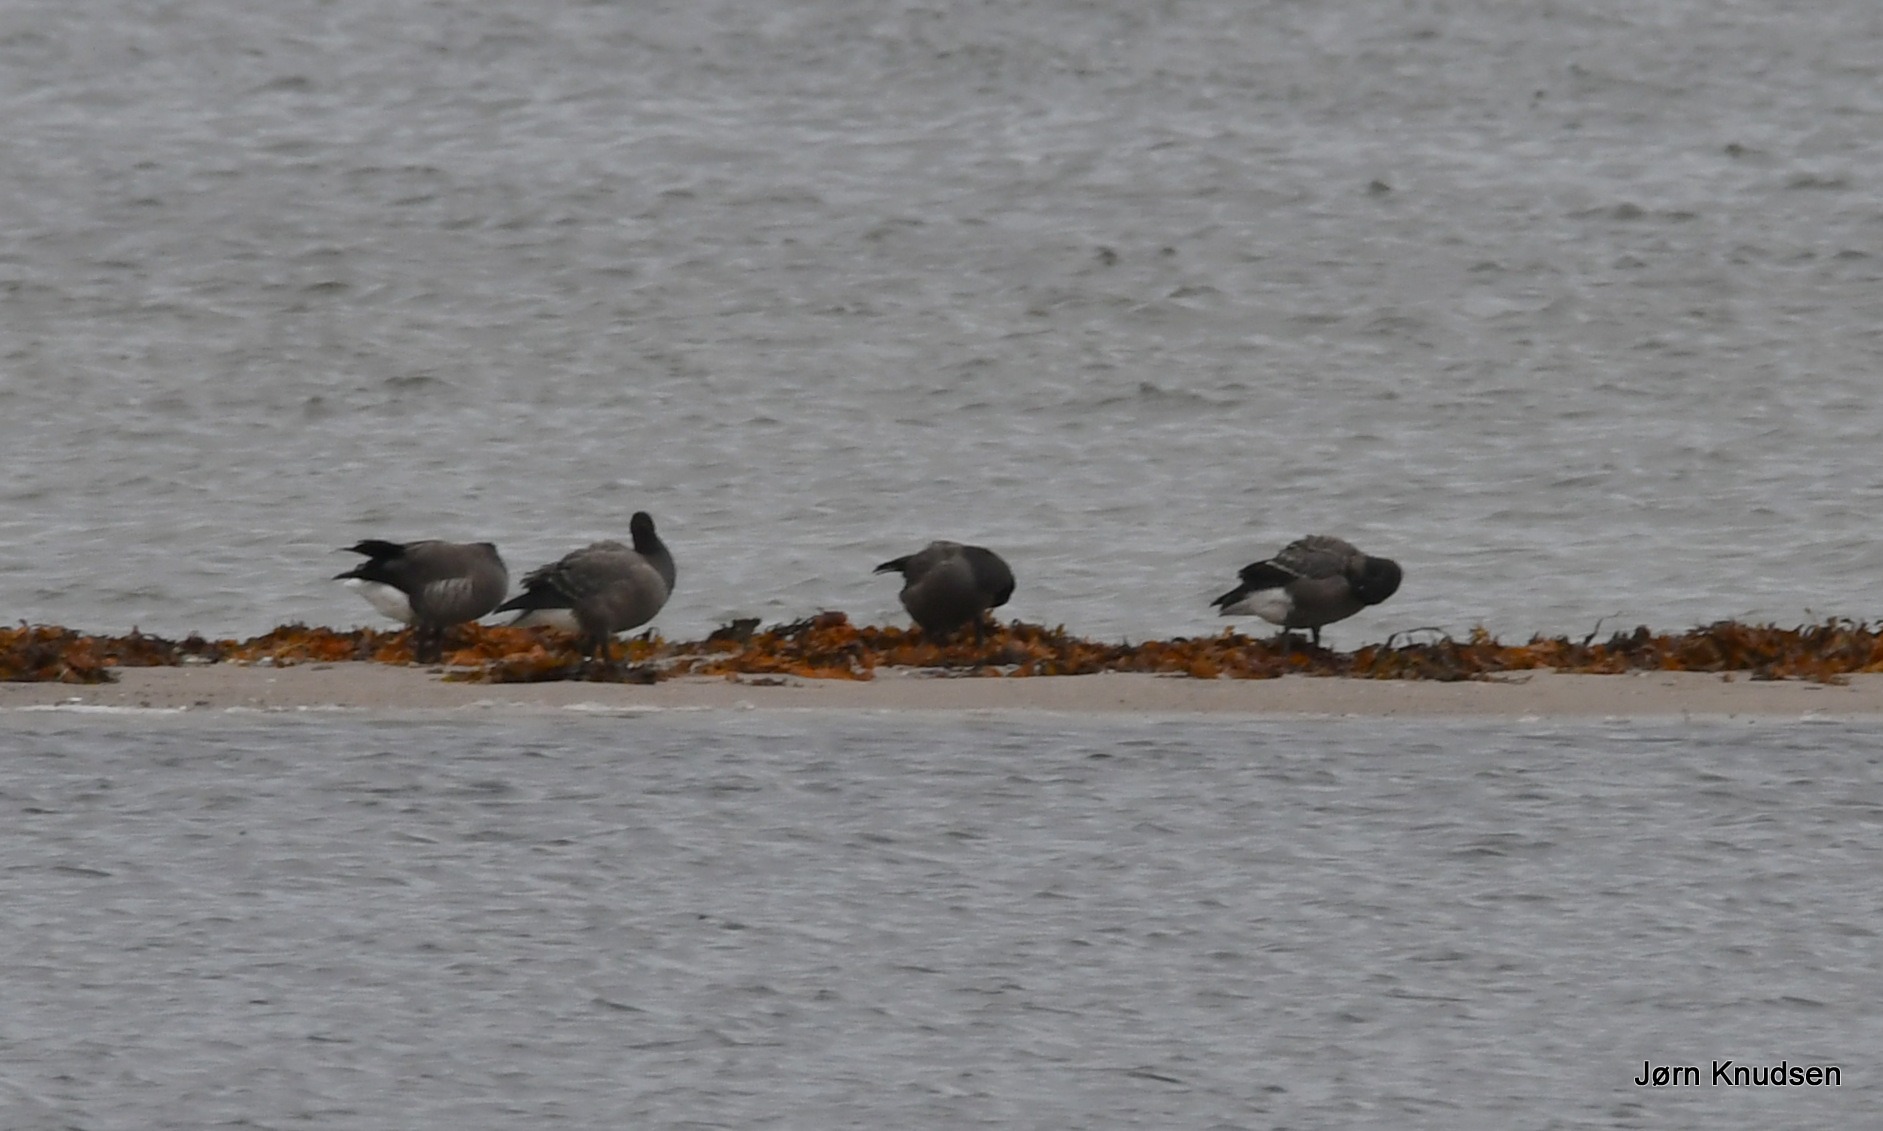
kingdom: Animalia
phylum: Chordata
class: Aves
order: Anseriformes
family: Anatidae
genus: Branta
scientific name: Branta bernicla
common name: Knortegås
